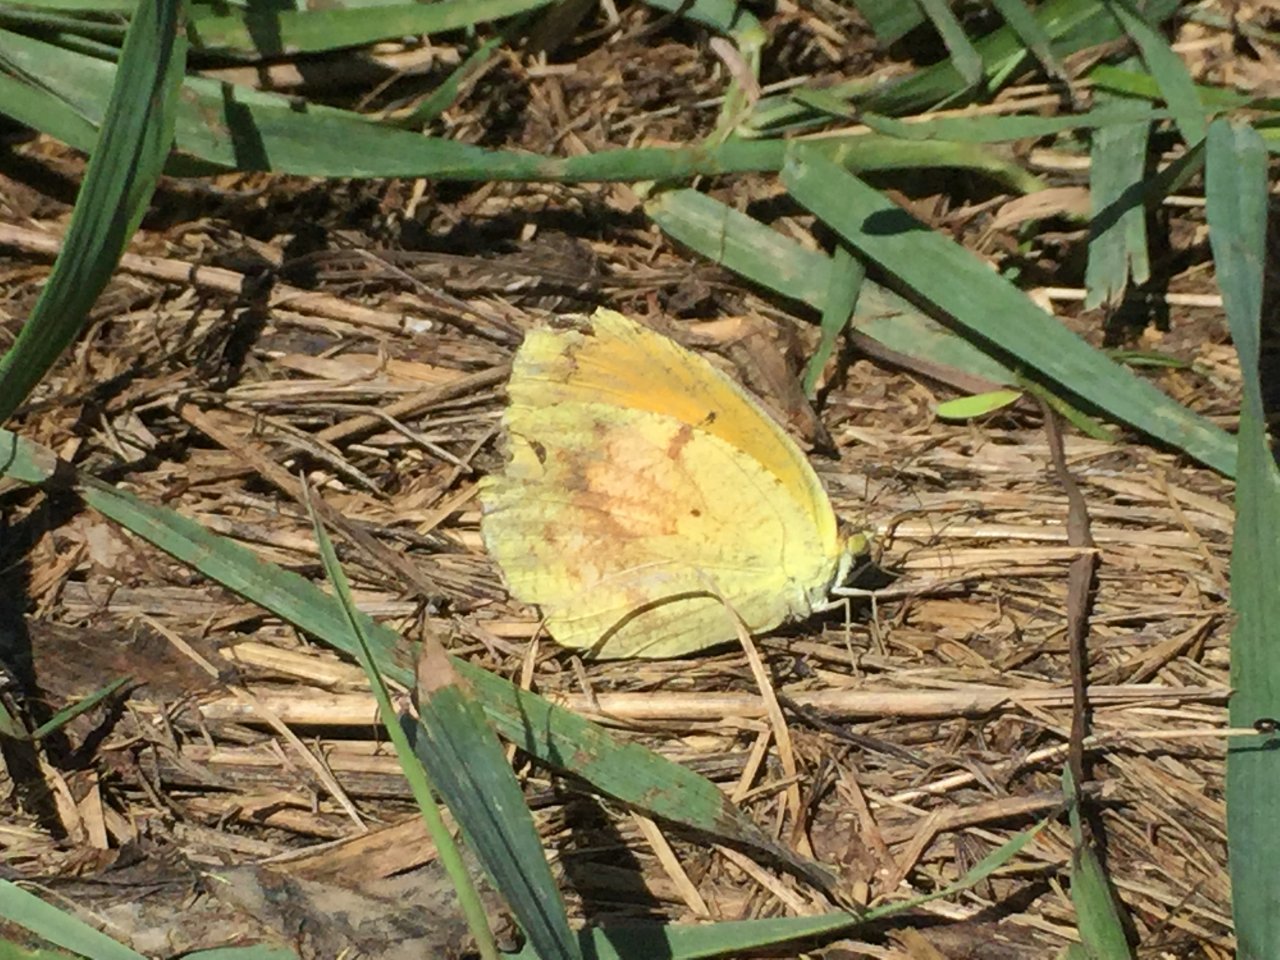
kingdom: Animalia
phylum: Arthropoda
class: Insecta
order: Lepidoptera
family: Pieridae
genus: Abaeis
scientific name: Abaeis nicippe
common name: Sleepy Orange
